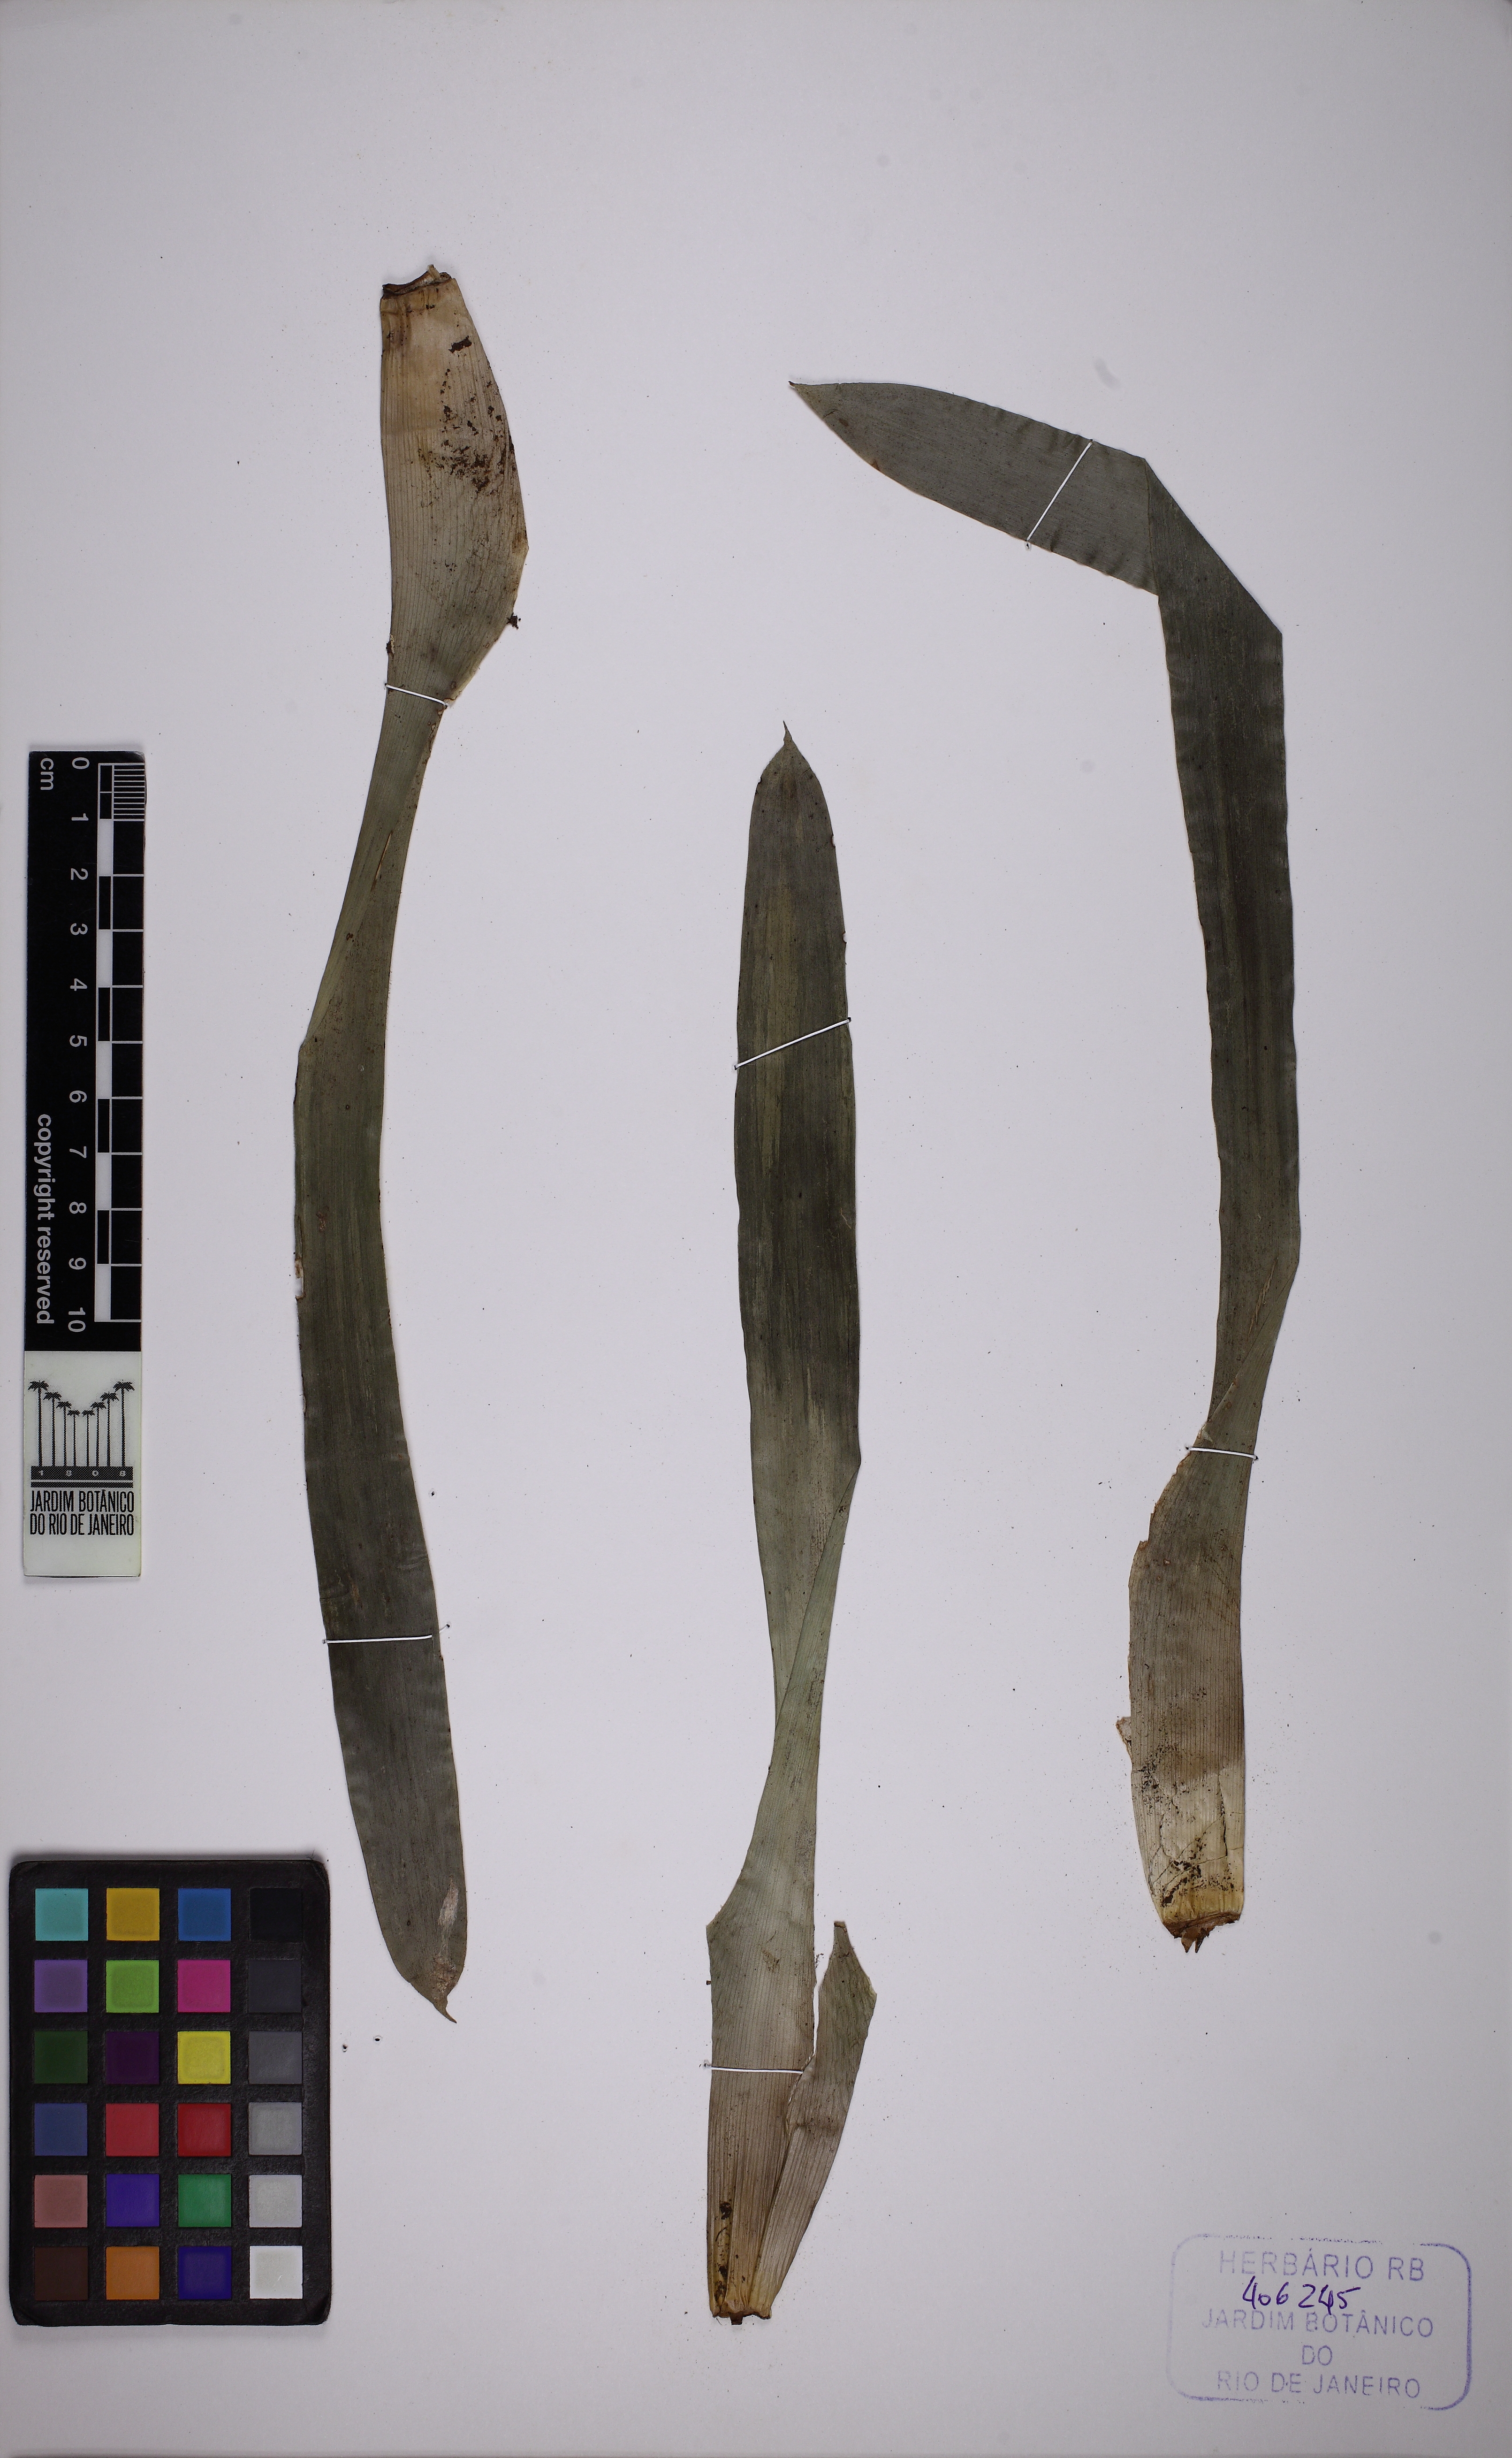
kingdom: Plantae
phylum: Tracheophyta
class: Liliopsida
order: Poales
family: Bromeliaceae
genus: Vriesea
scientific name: Vriesea scalaris
